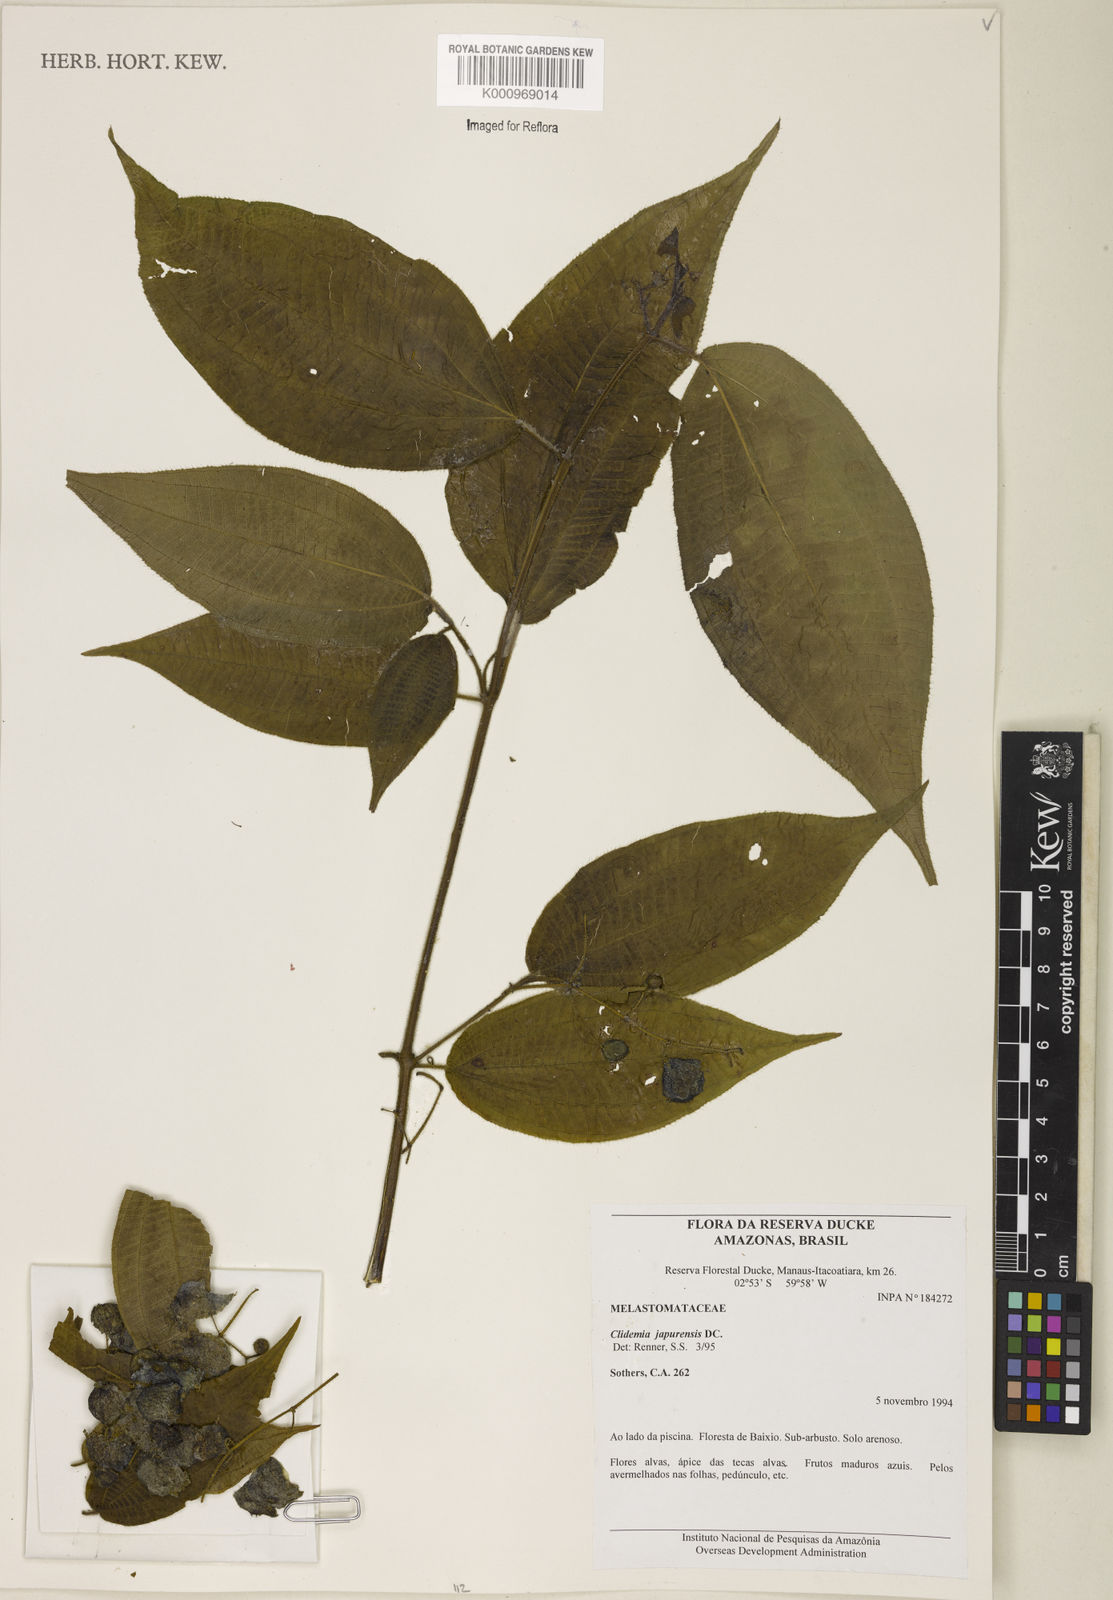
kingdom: Plantae
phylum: Tracheophyta
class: Magnoliopsida
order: Myrtales
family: Melastomataceae
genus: Miconia
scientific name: Miconia heteroclita
